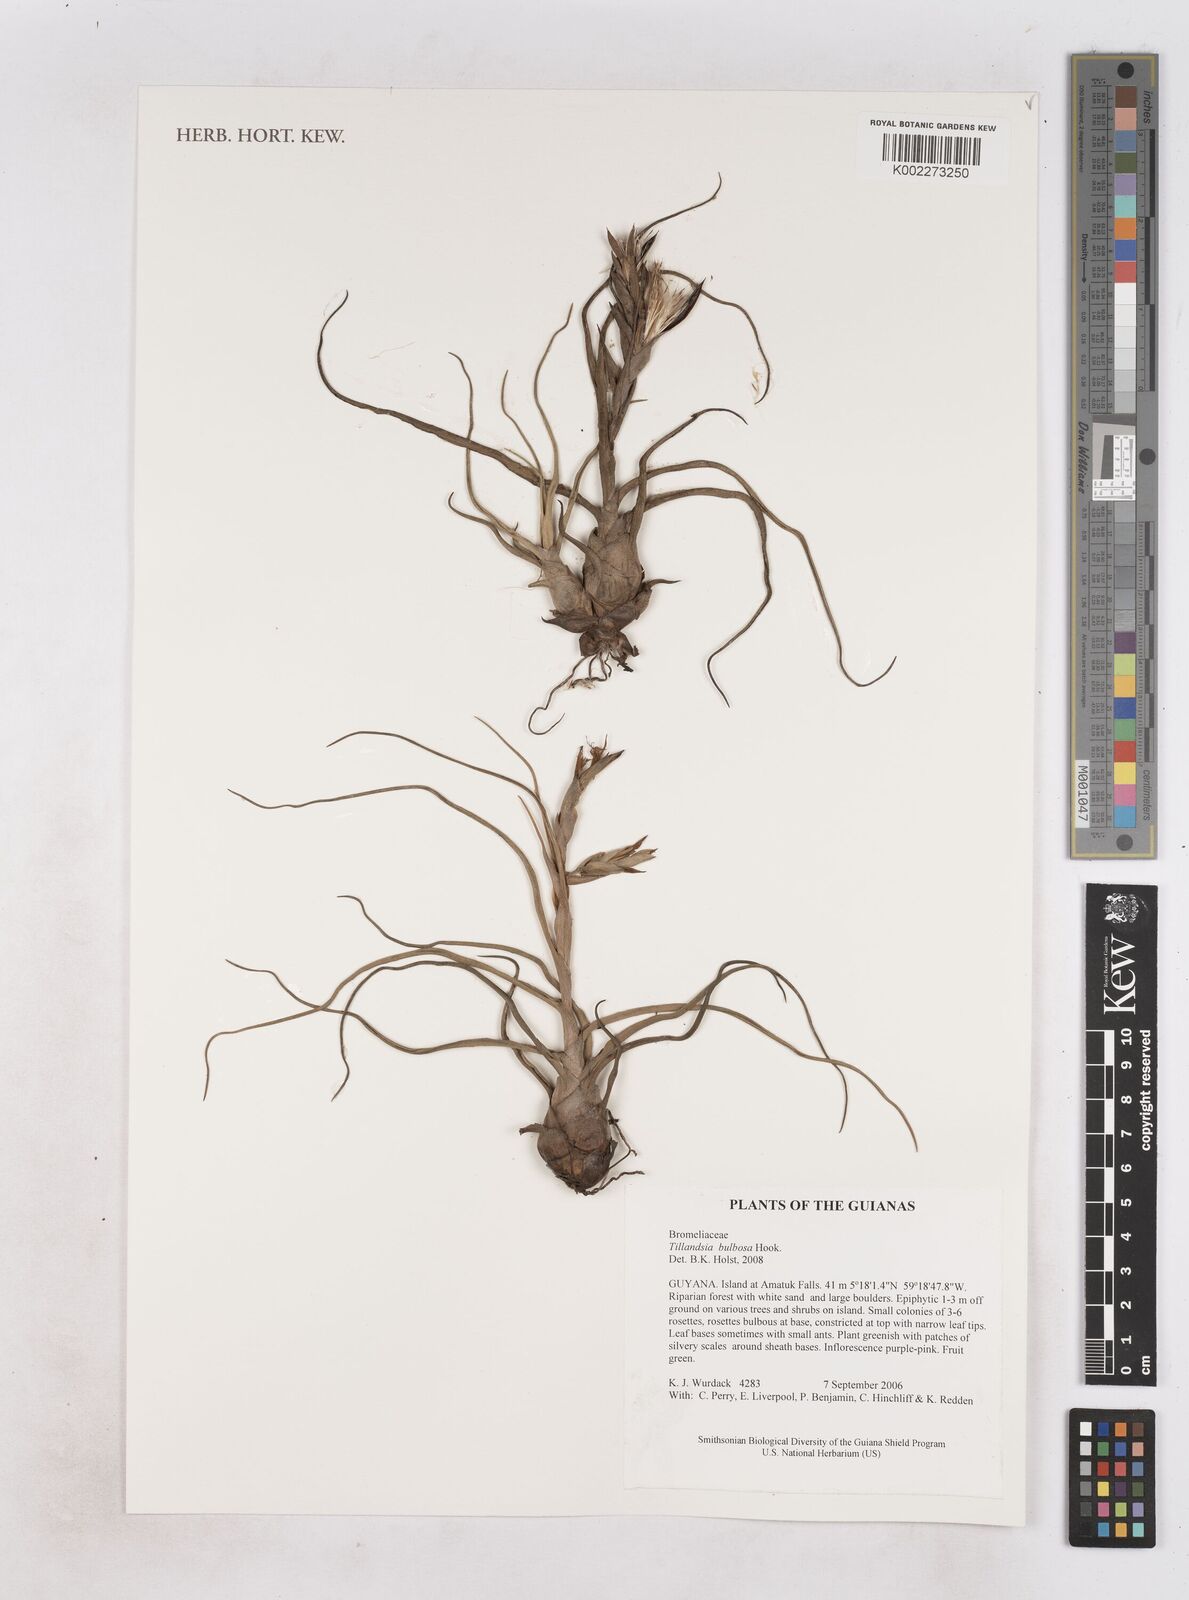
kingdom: Plantae
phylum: Tracheophyta
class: Liliopsida
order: Poales
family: Bromeliaceae
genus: Tillandsia
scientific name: Tillandsia bulbosa
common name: Bulbous airplant
